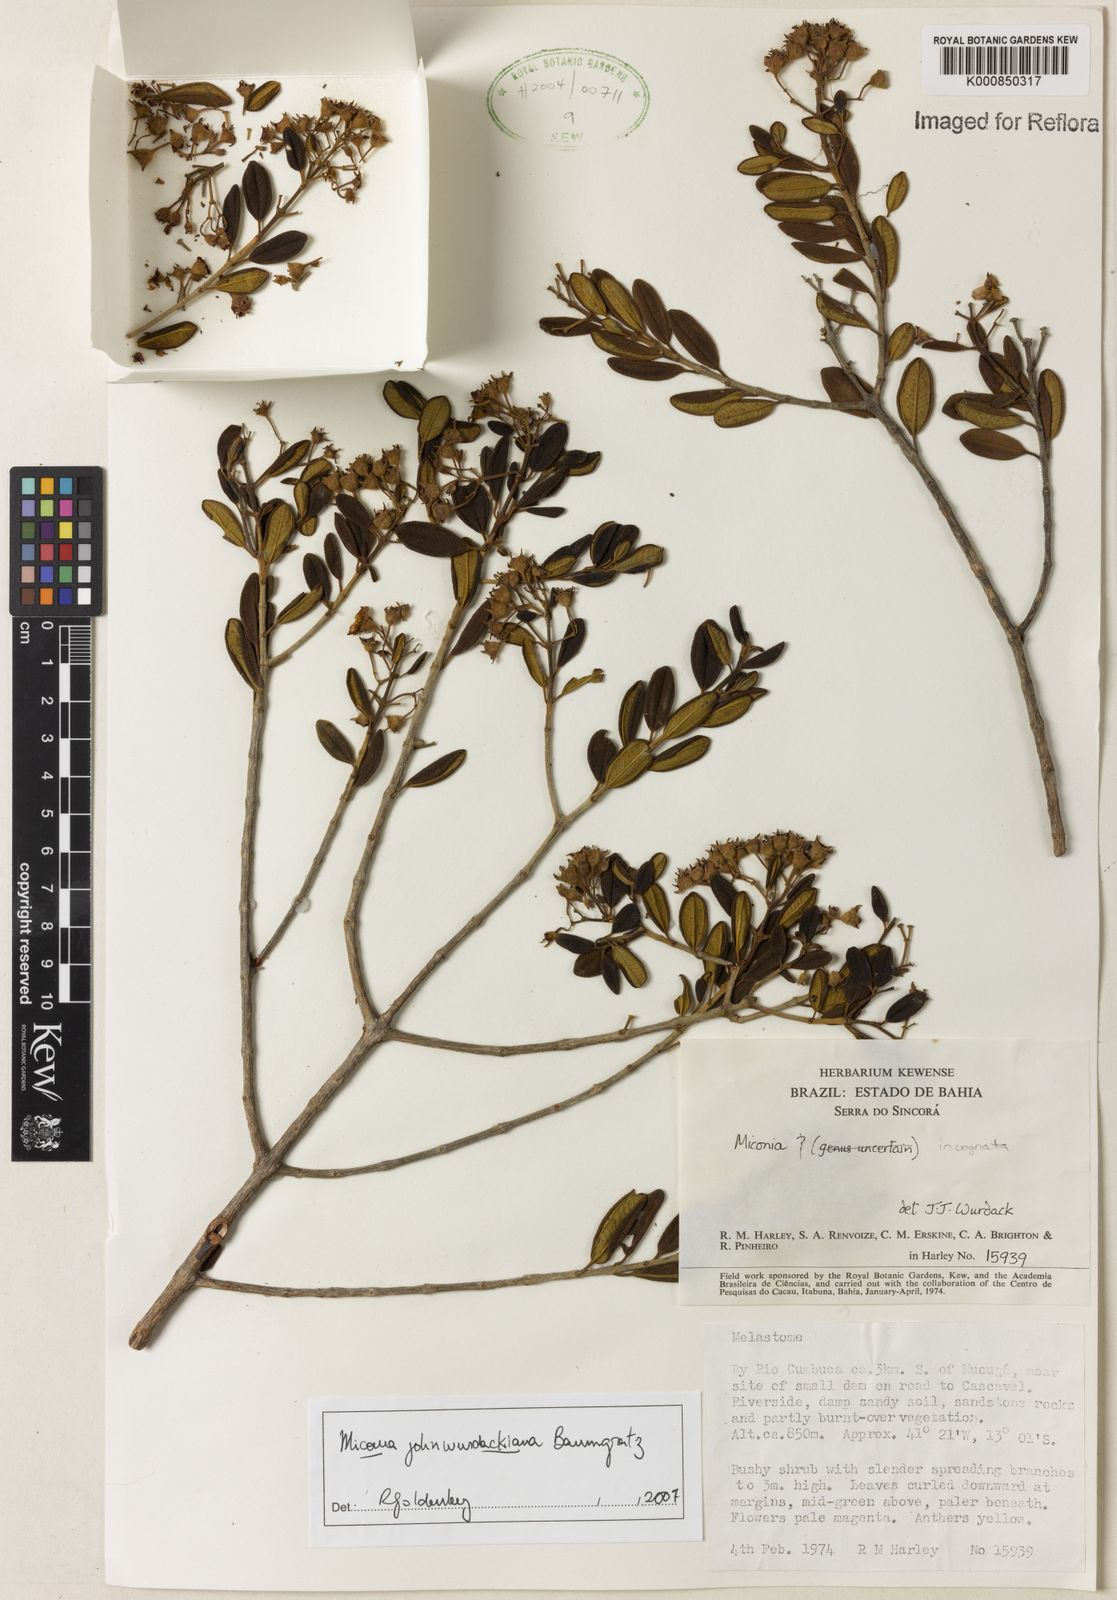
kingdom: Plantae
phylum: Tracheophyta
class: Magnoliopsida
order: Myrtales
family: Melastomataceae
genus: Miconia
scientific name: Miconia
